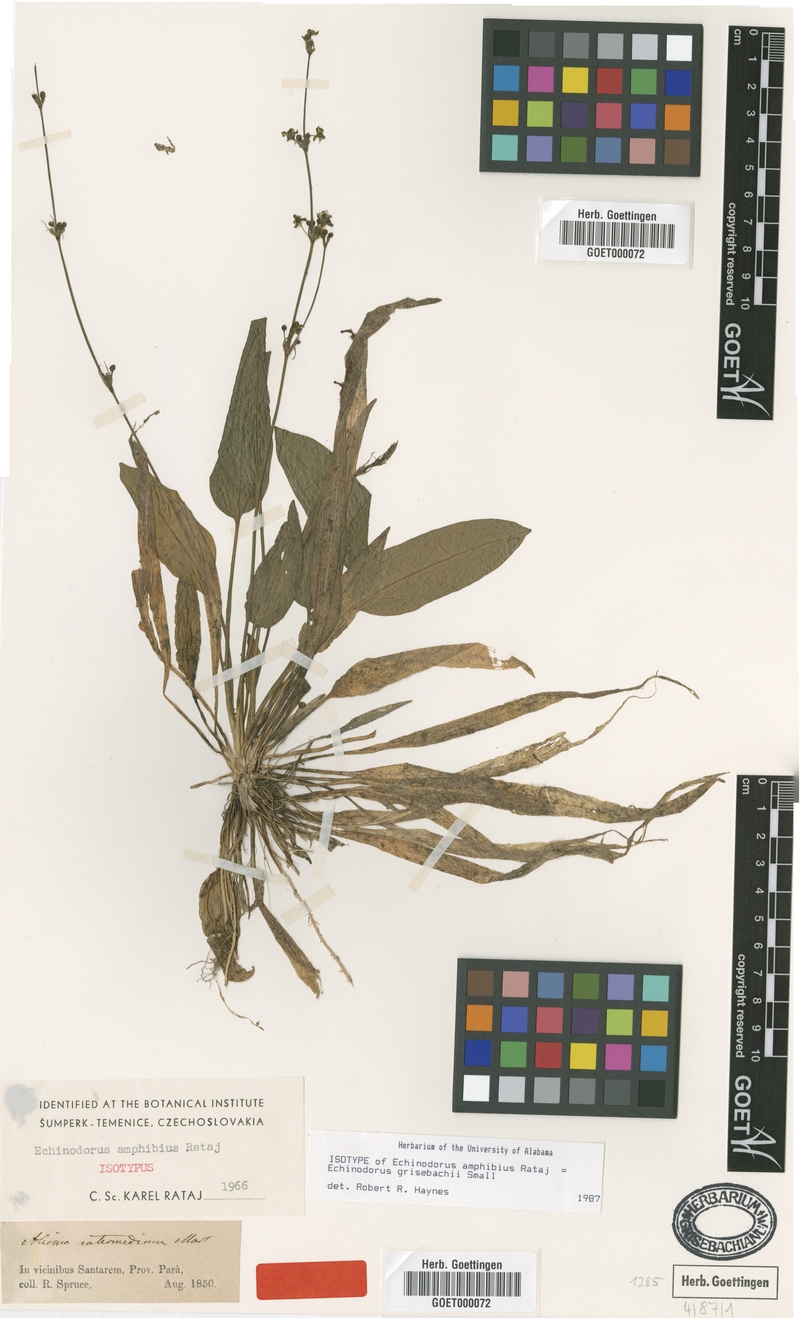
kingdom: Plantae
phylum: Tracheophyta
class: Liliopsida
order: Alismatales
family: Alismataceae
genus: Aquarius
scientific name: Aquarius grisebachii
